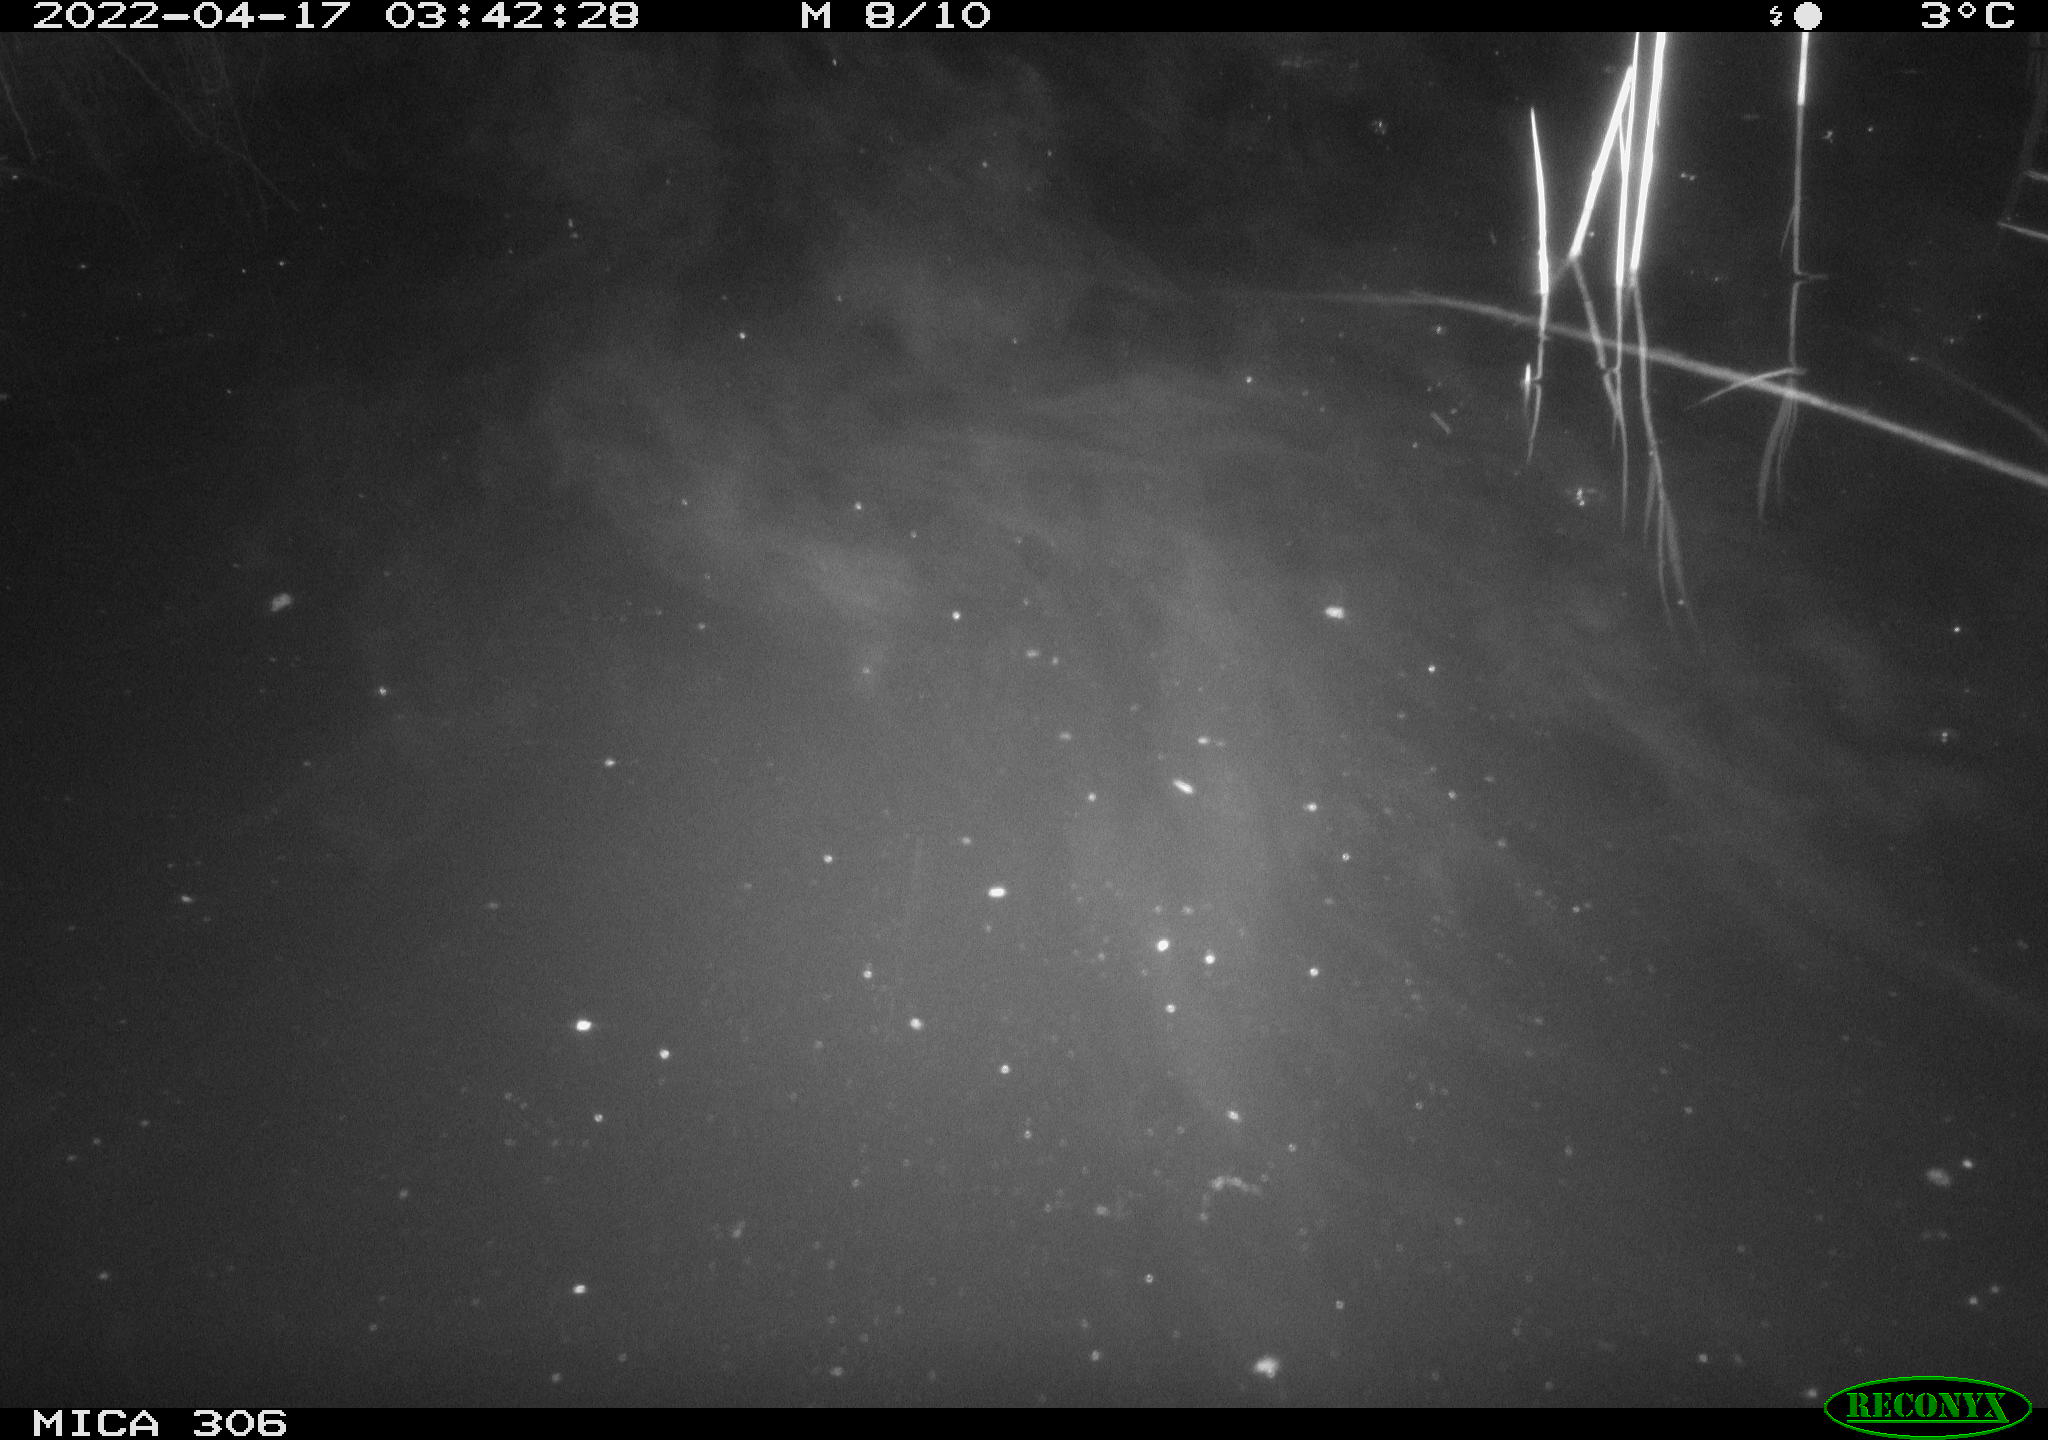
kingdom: Animalia
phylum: Chordata
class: Aves
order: Anseriformes
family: Anatidae
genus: Anas
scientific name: Anas platyrhynchos
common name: Mallard
